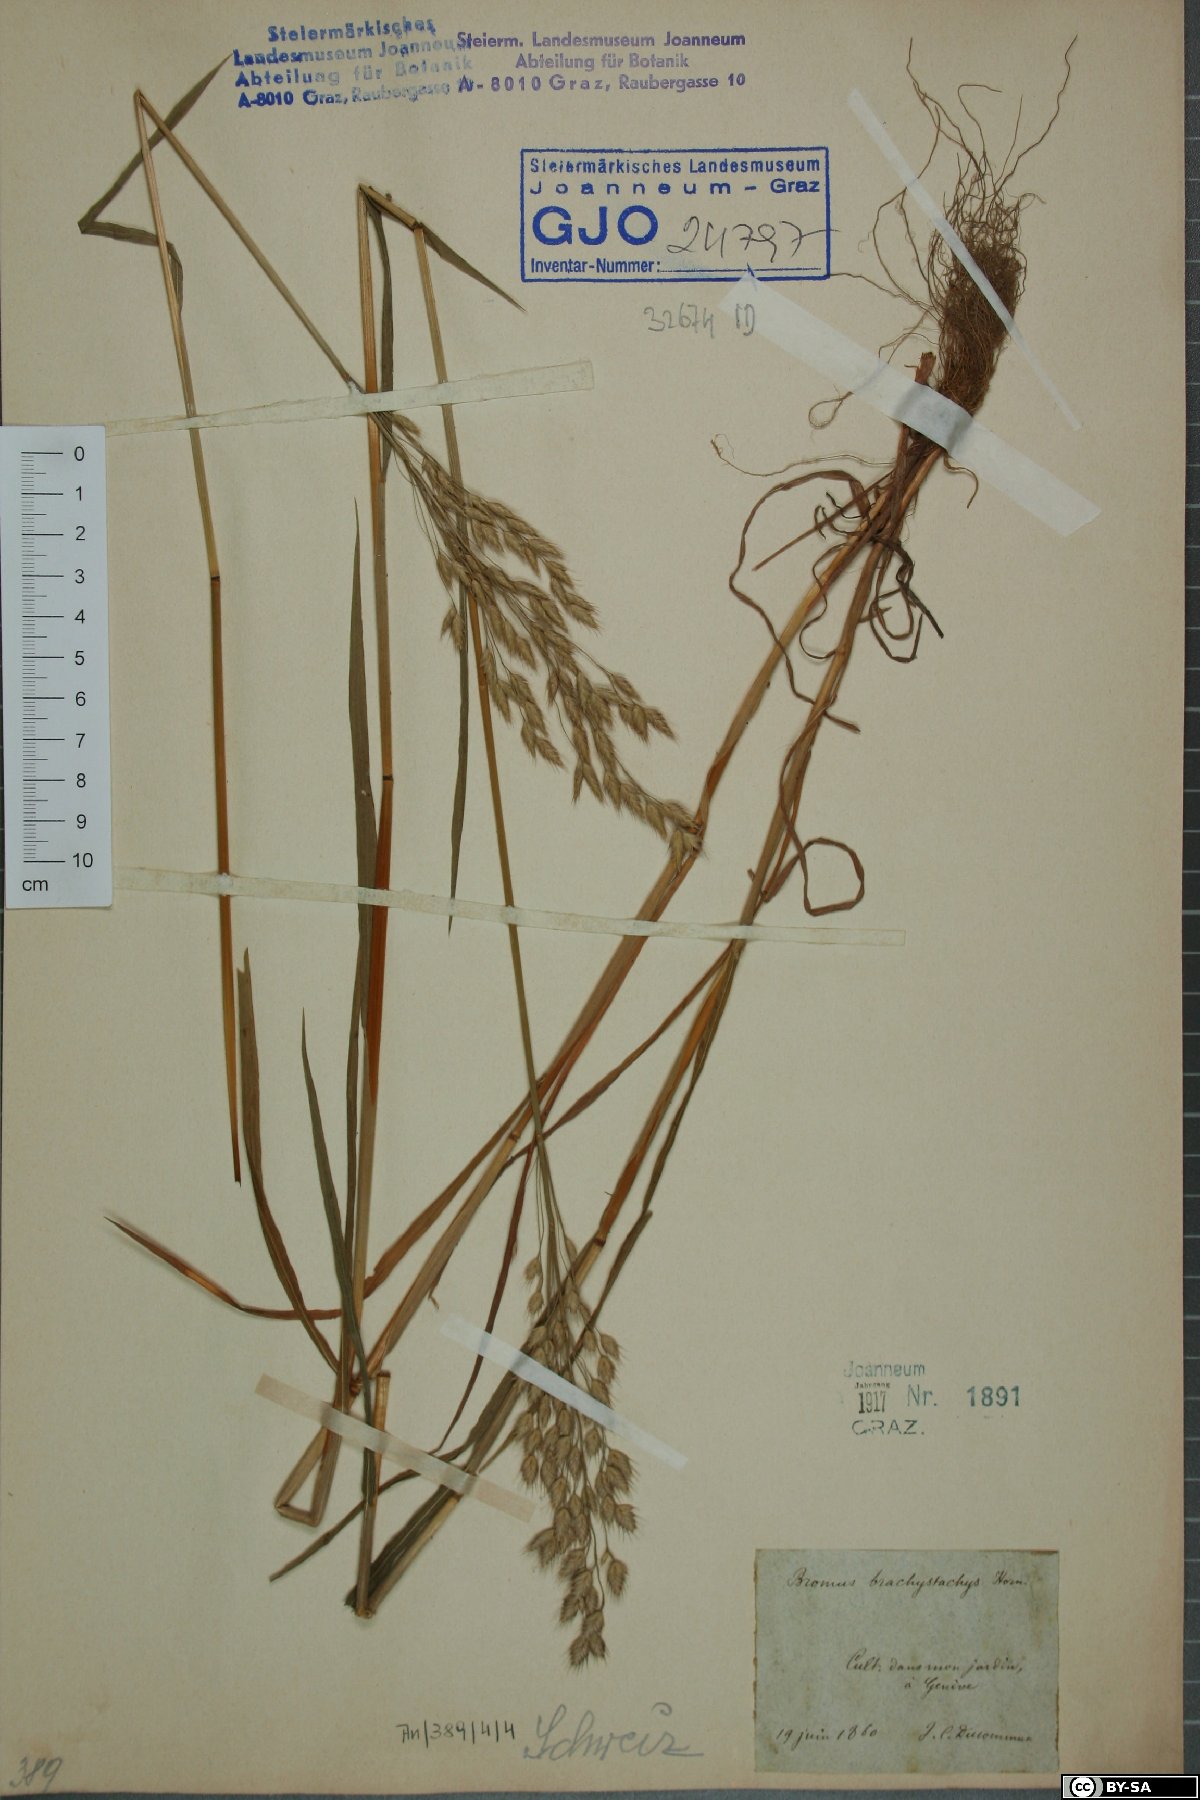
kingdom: Plantae
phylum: Tracheophyta
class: Liliopsida
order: Poales
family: Poaceae
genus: Bromus
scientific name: Bromus brachystachys
